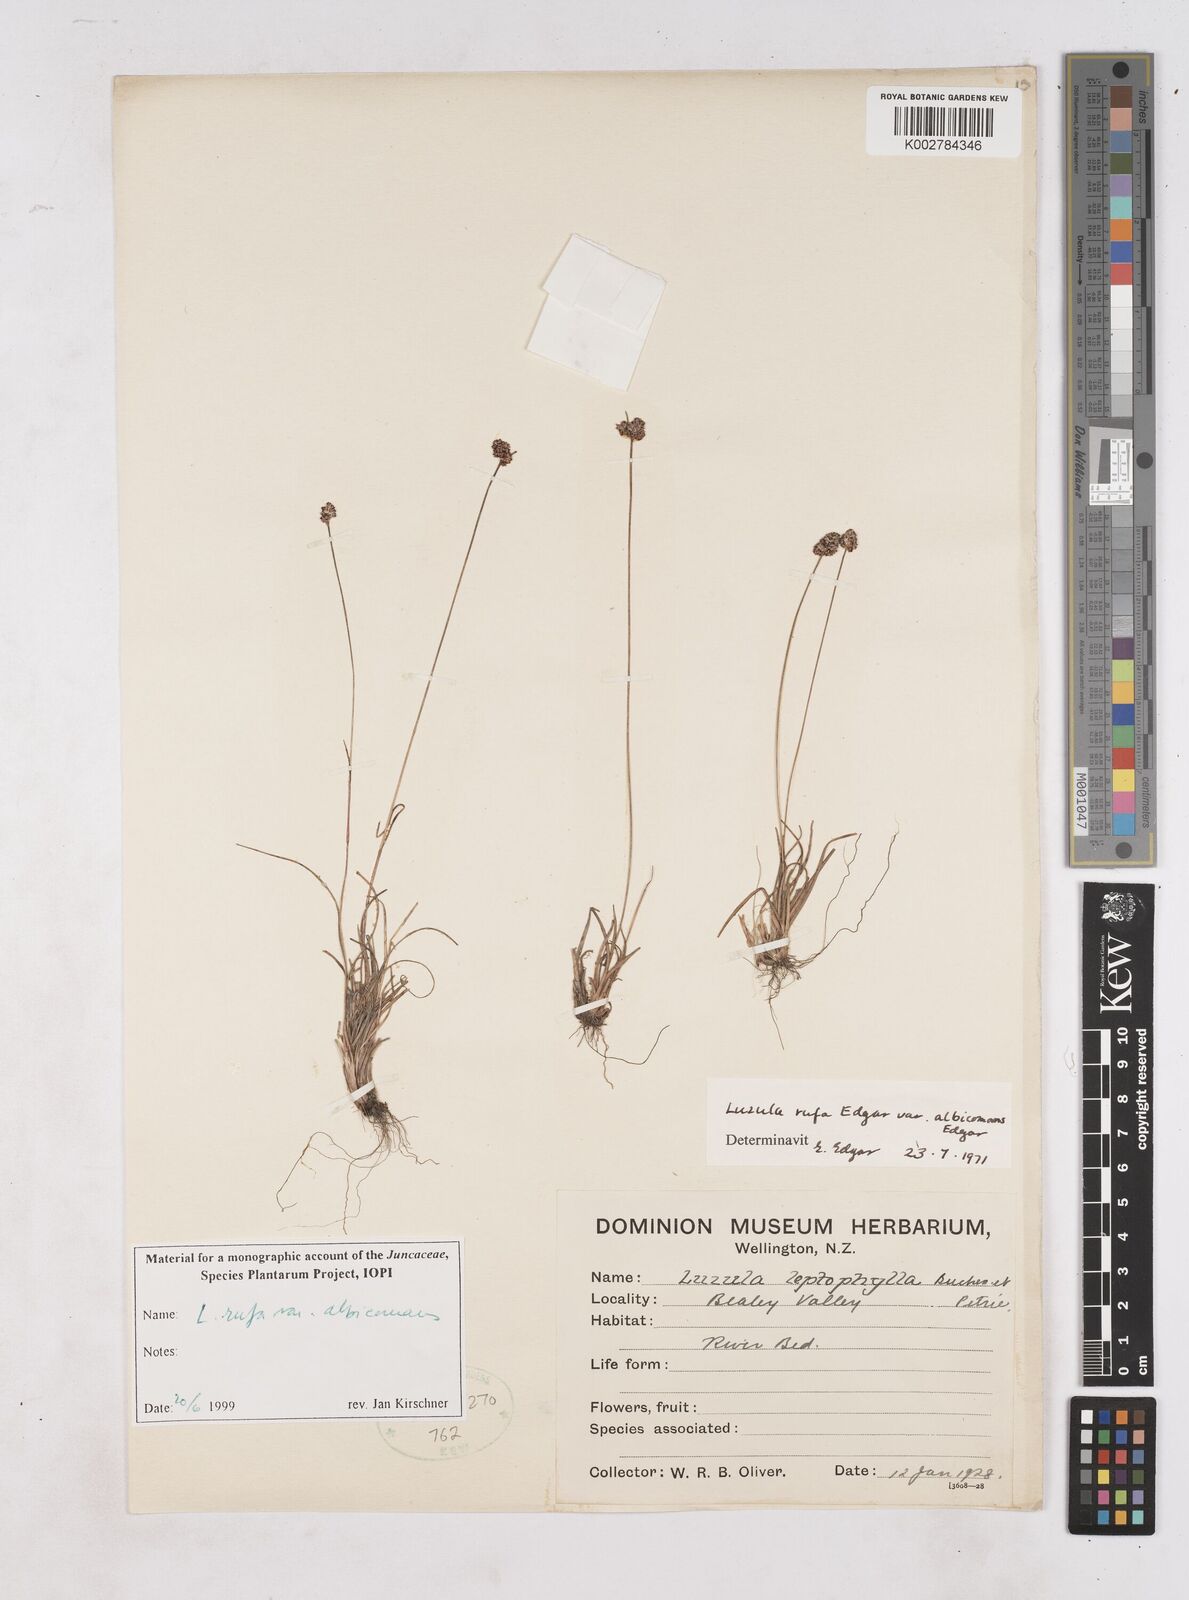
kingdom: Plantae
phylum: Tracheophyta
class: Liliopsida
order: Poales
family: Juncaceae
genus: Luzula
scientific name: Luzula rufa
